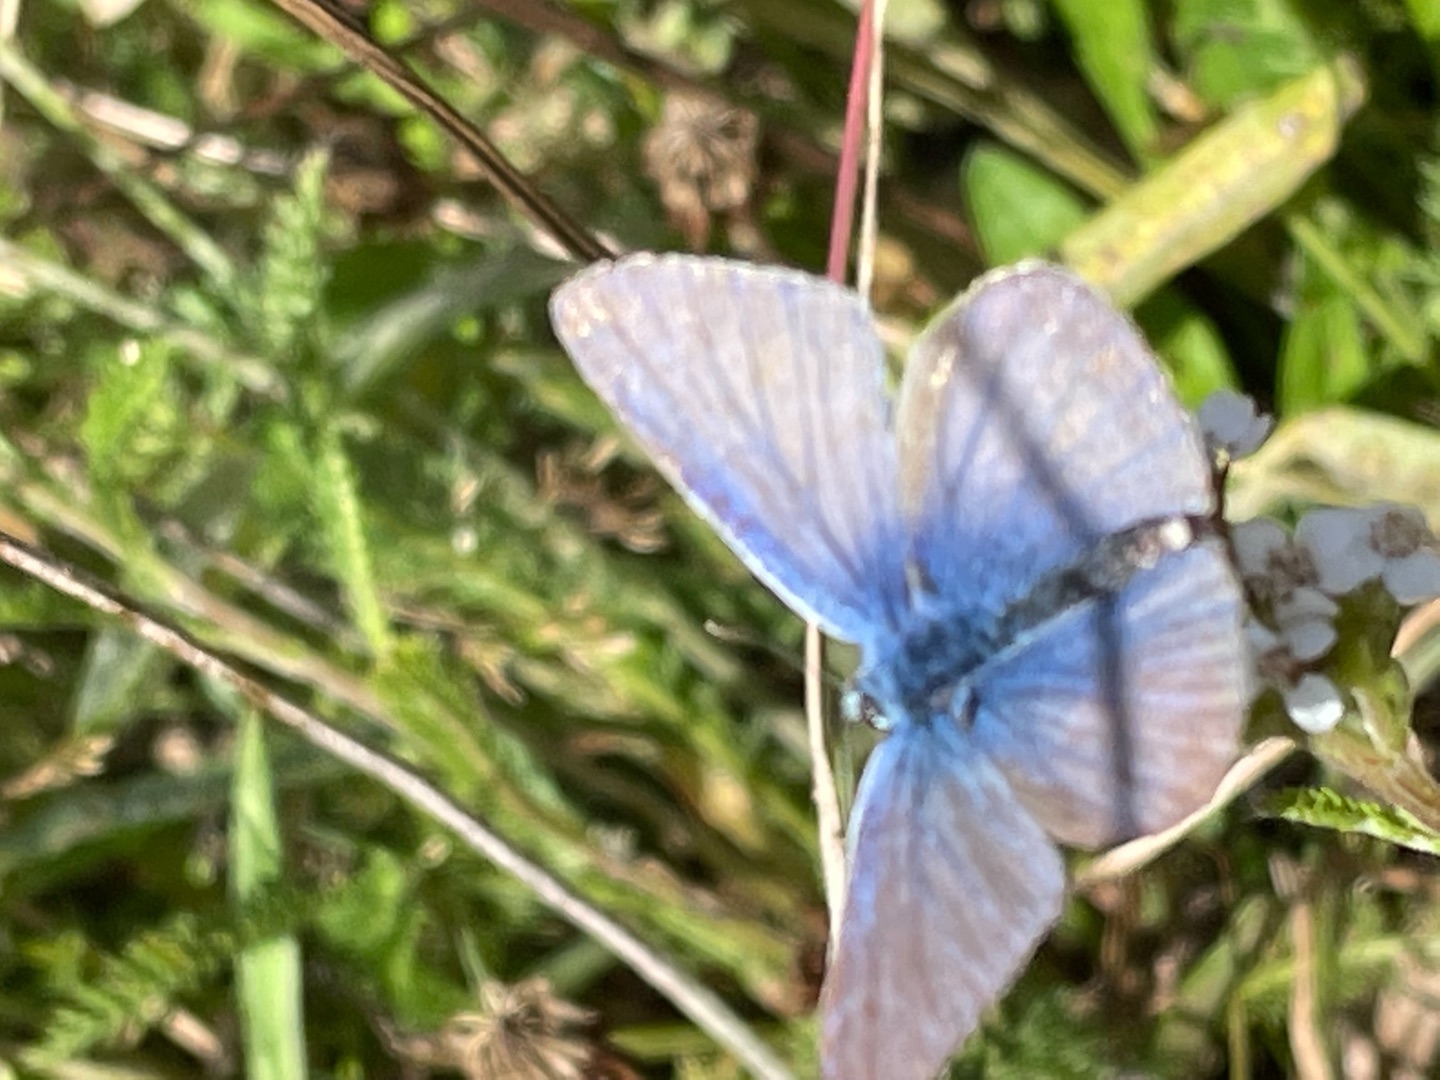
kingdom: Animalia
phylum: Arthropoda
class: Insecta
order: Lepidoptera
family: Lycaenidae
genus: Polyommatus
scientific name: Polyommatus icarus
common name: Almindelig blåfugl
